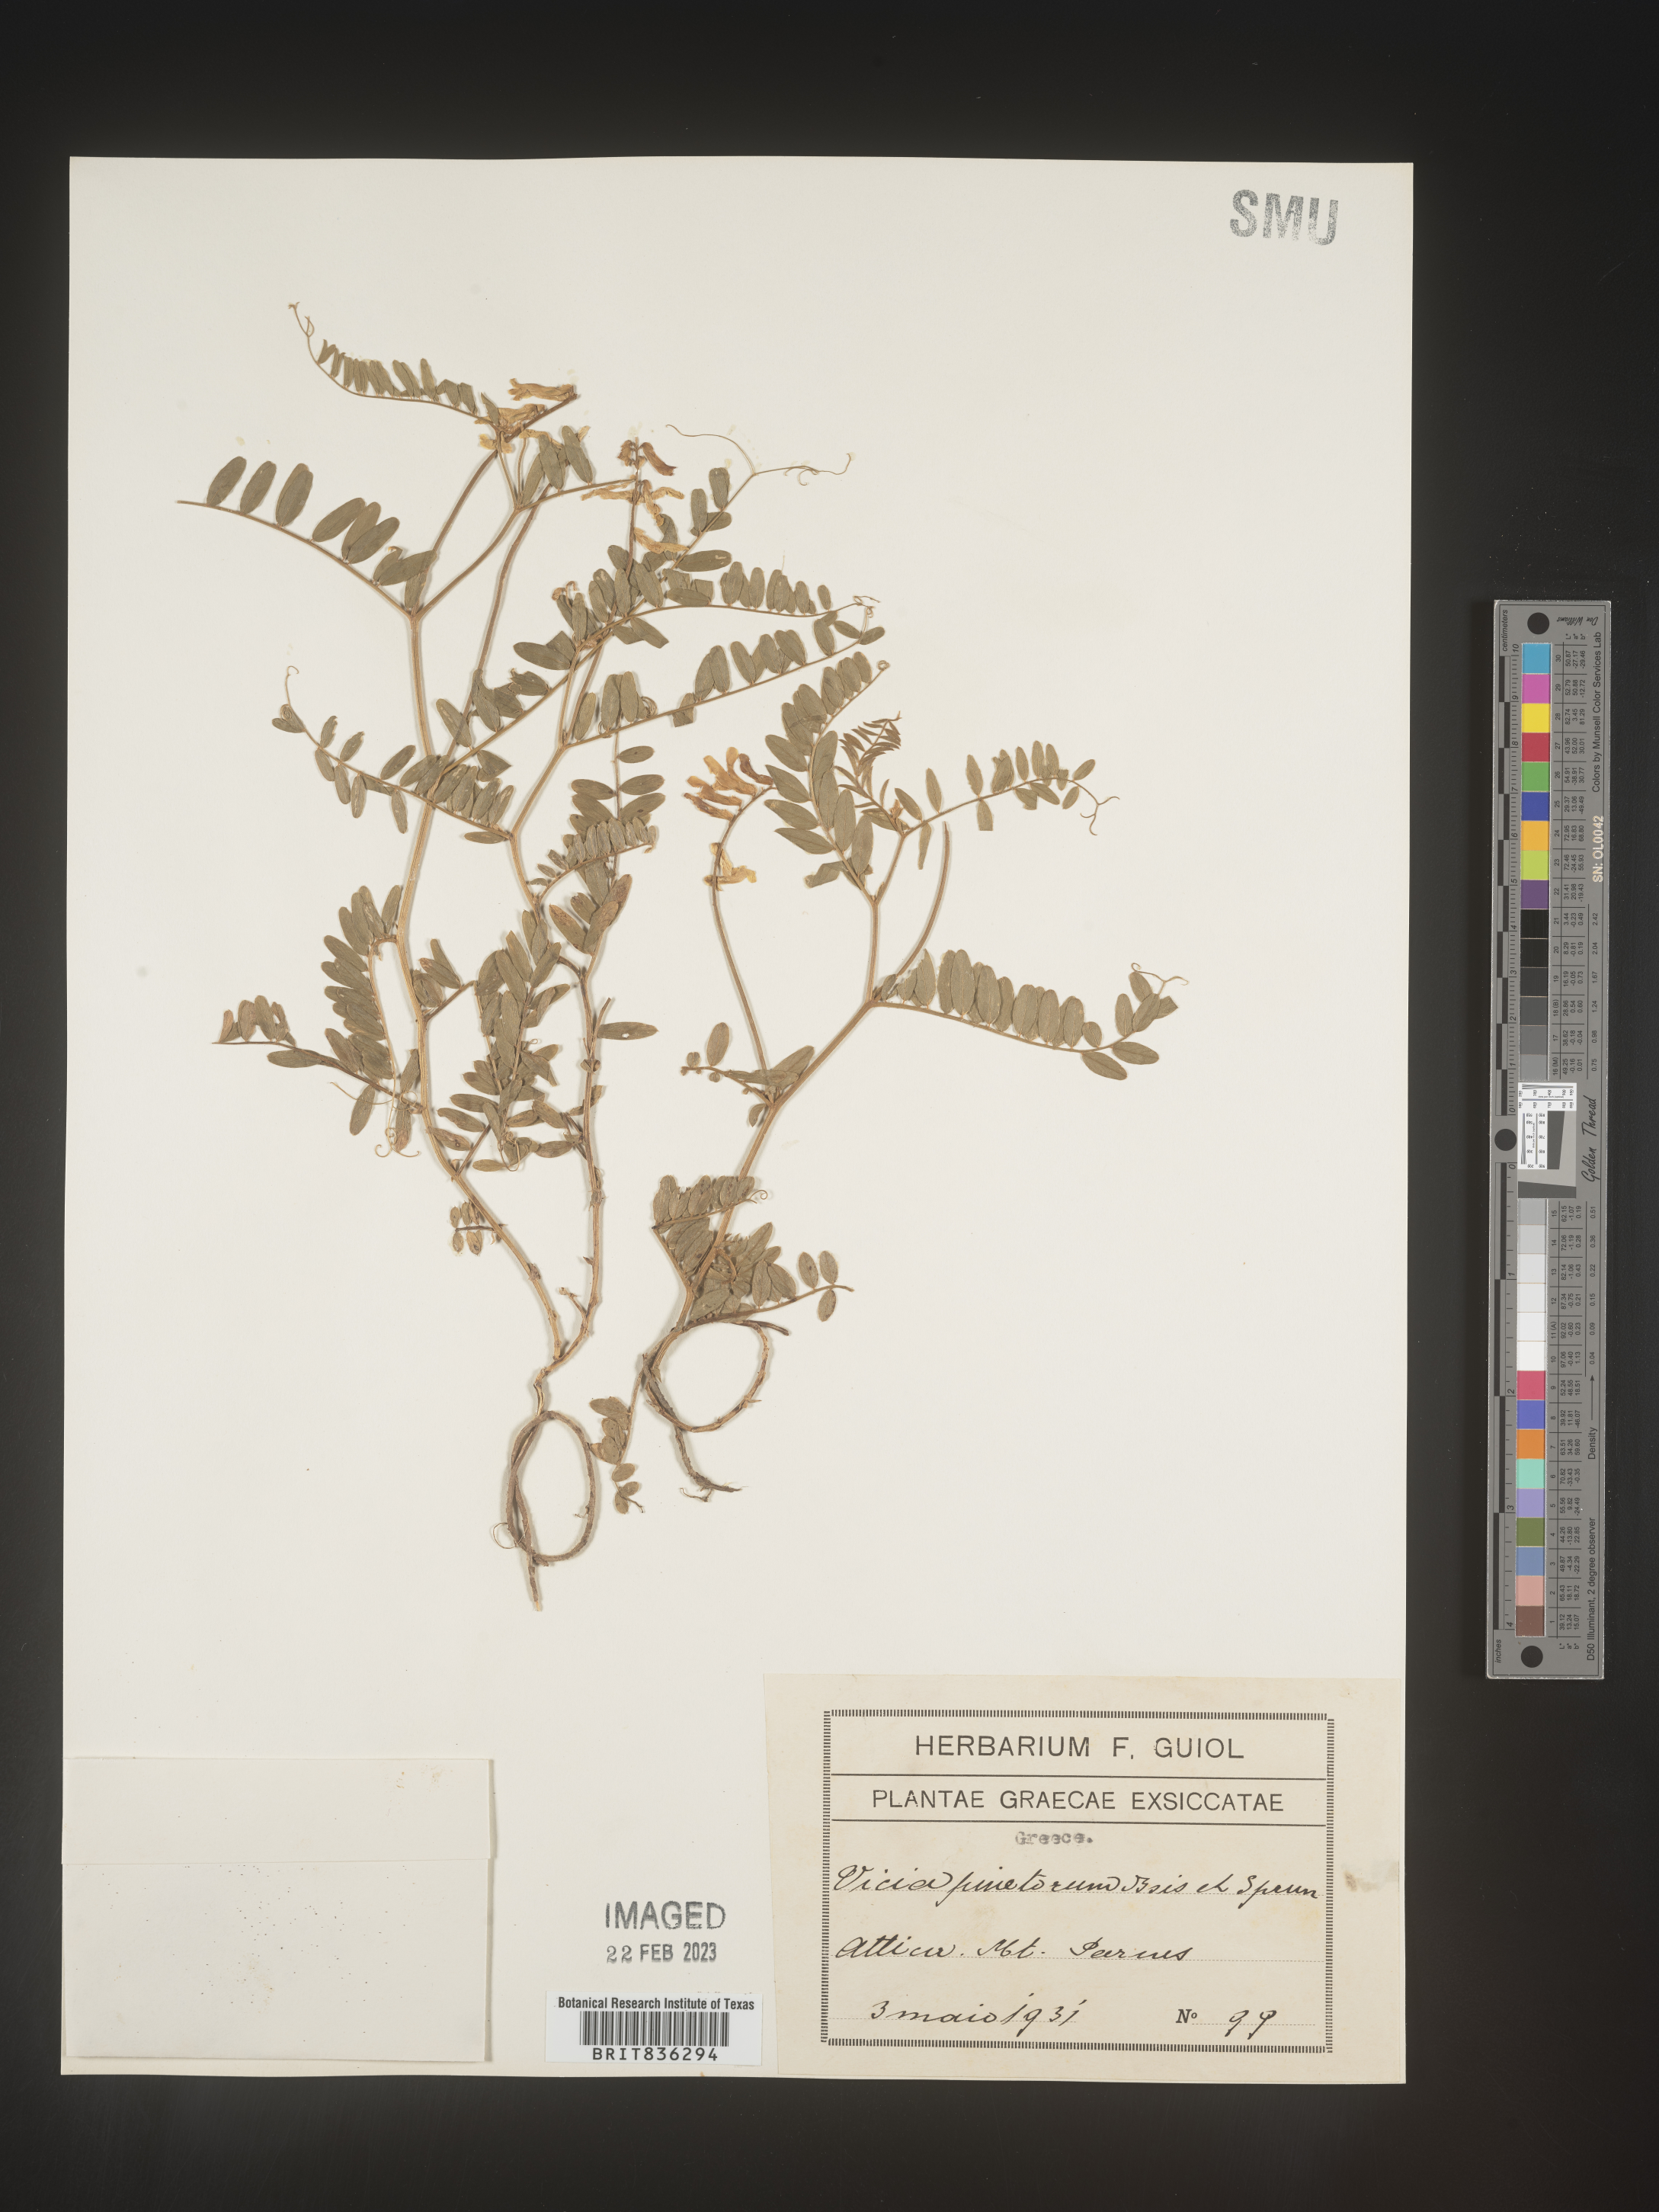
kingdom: Plantae
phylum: Tracheophyta
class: Magnoliopsida
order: Fabales
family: Fabaceae
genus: Vicia
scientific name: Vicia
